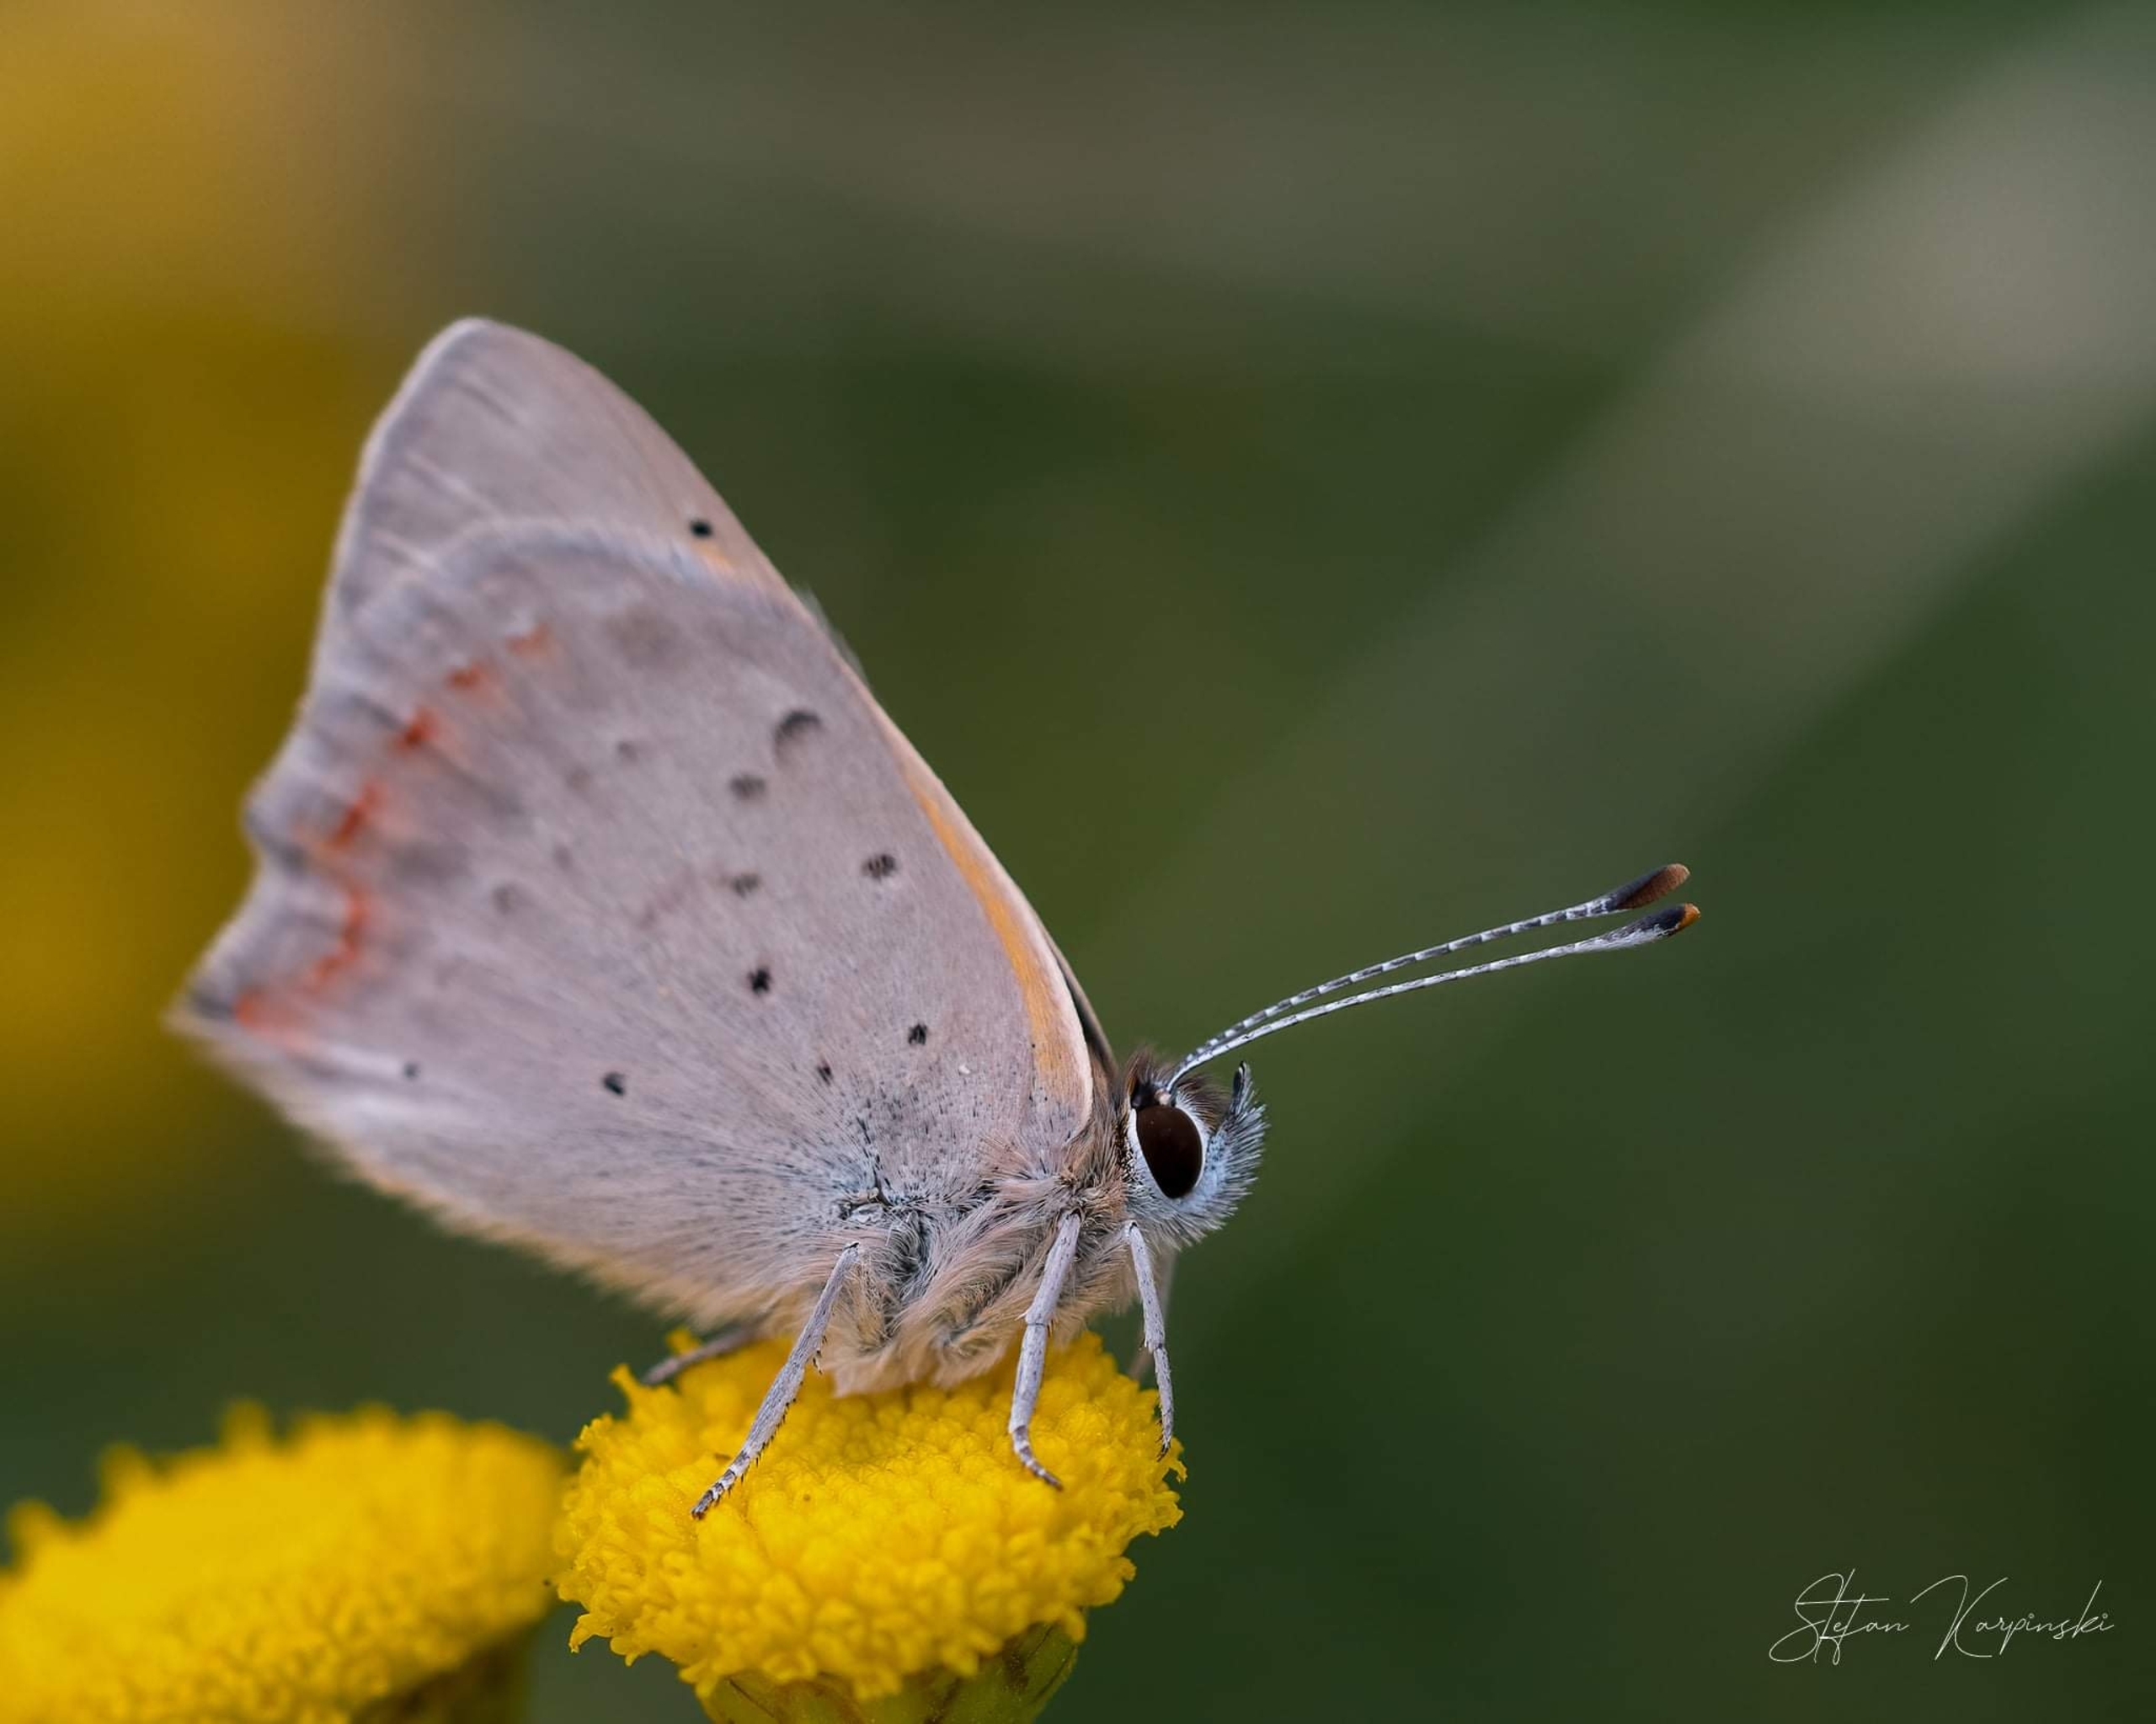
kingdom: Animalia
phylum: Arthropoda
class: Insecta
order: Lepidoptera
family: Lycaenidae
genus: Lycaena
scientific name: Lycaena phlaeas
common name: Lille ildfugl
